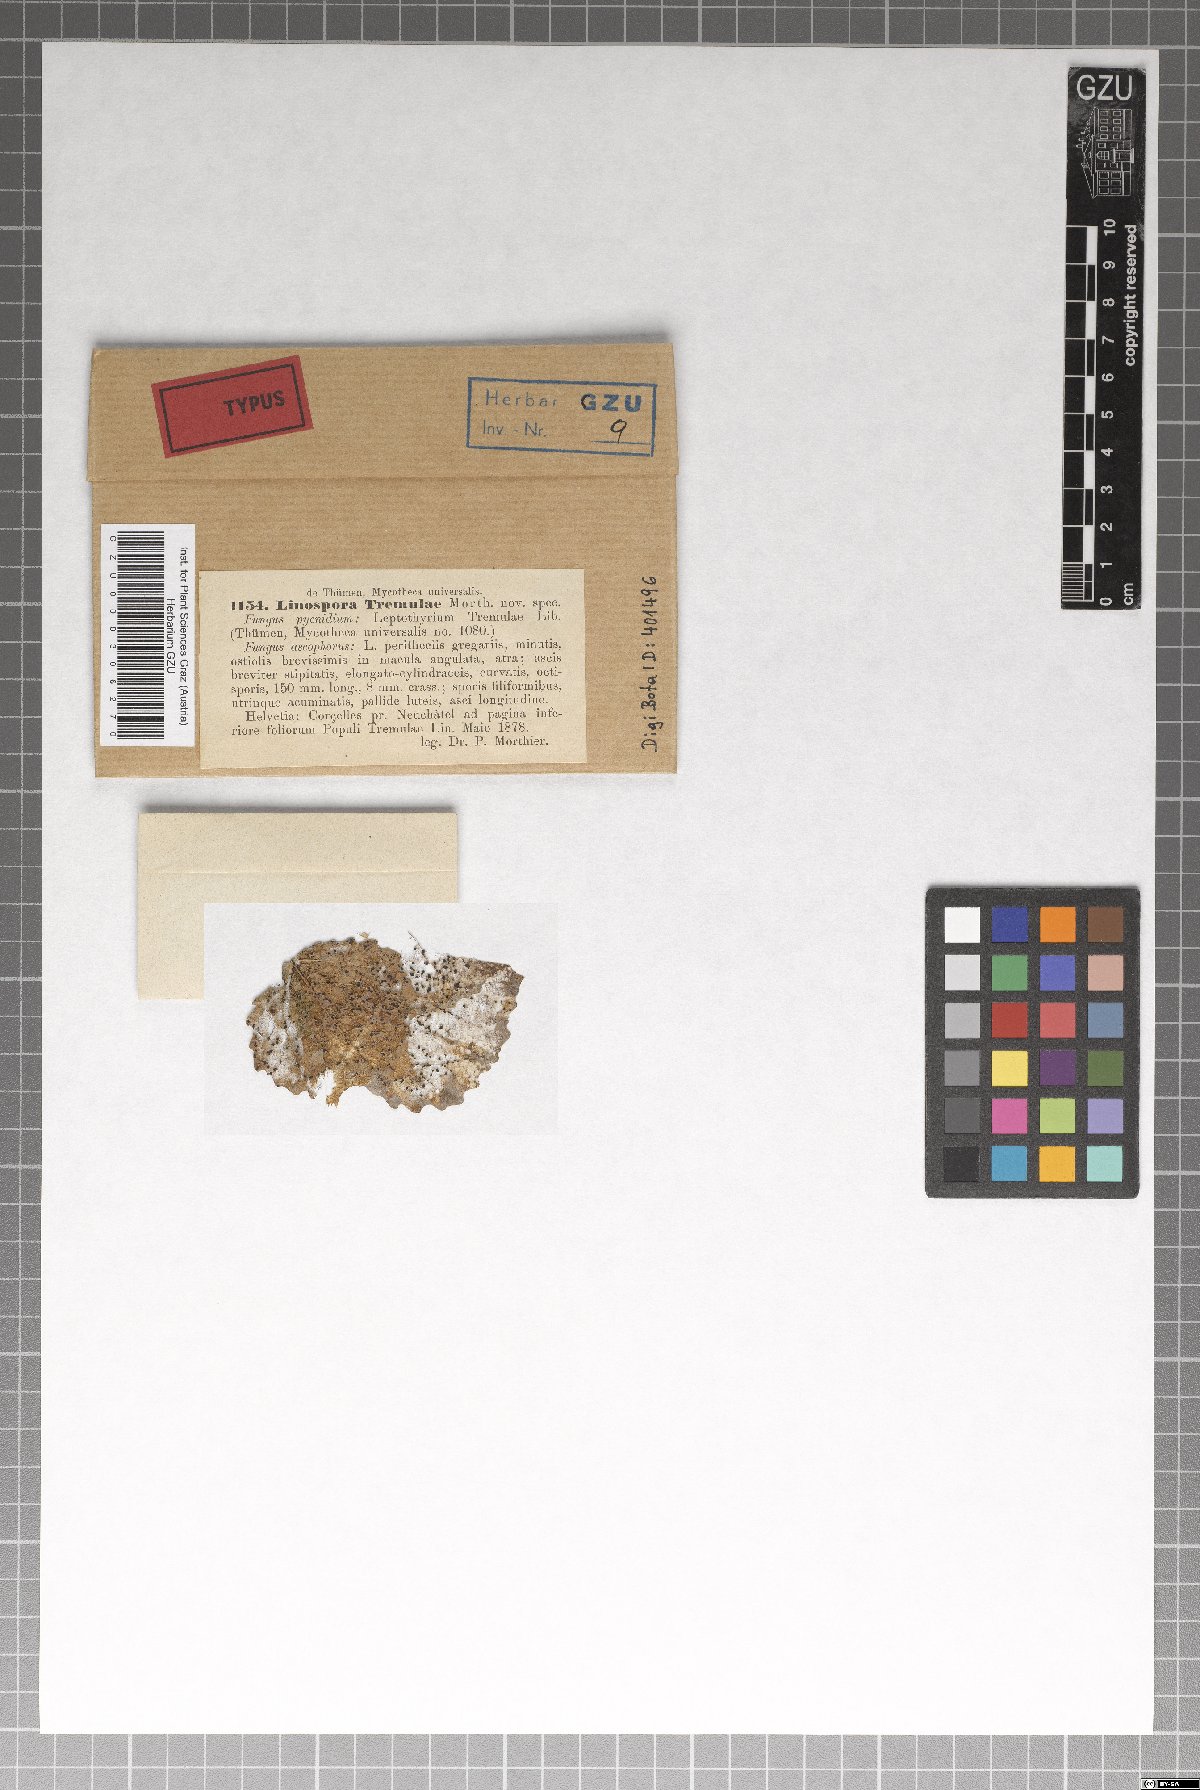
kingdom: Fungi
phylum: Ascomycota
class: Sordariomycetes
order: Diaporthales
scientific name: Diaporthales
